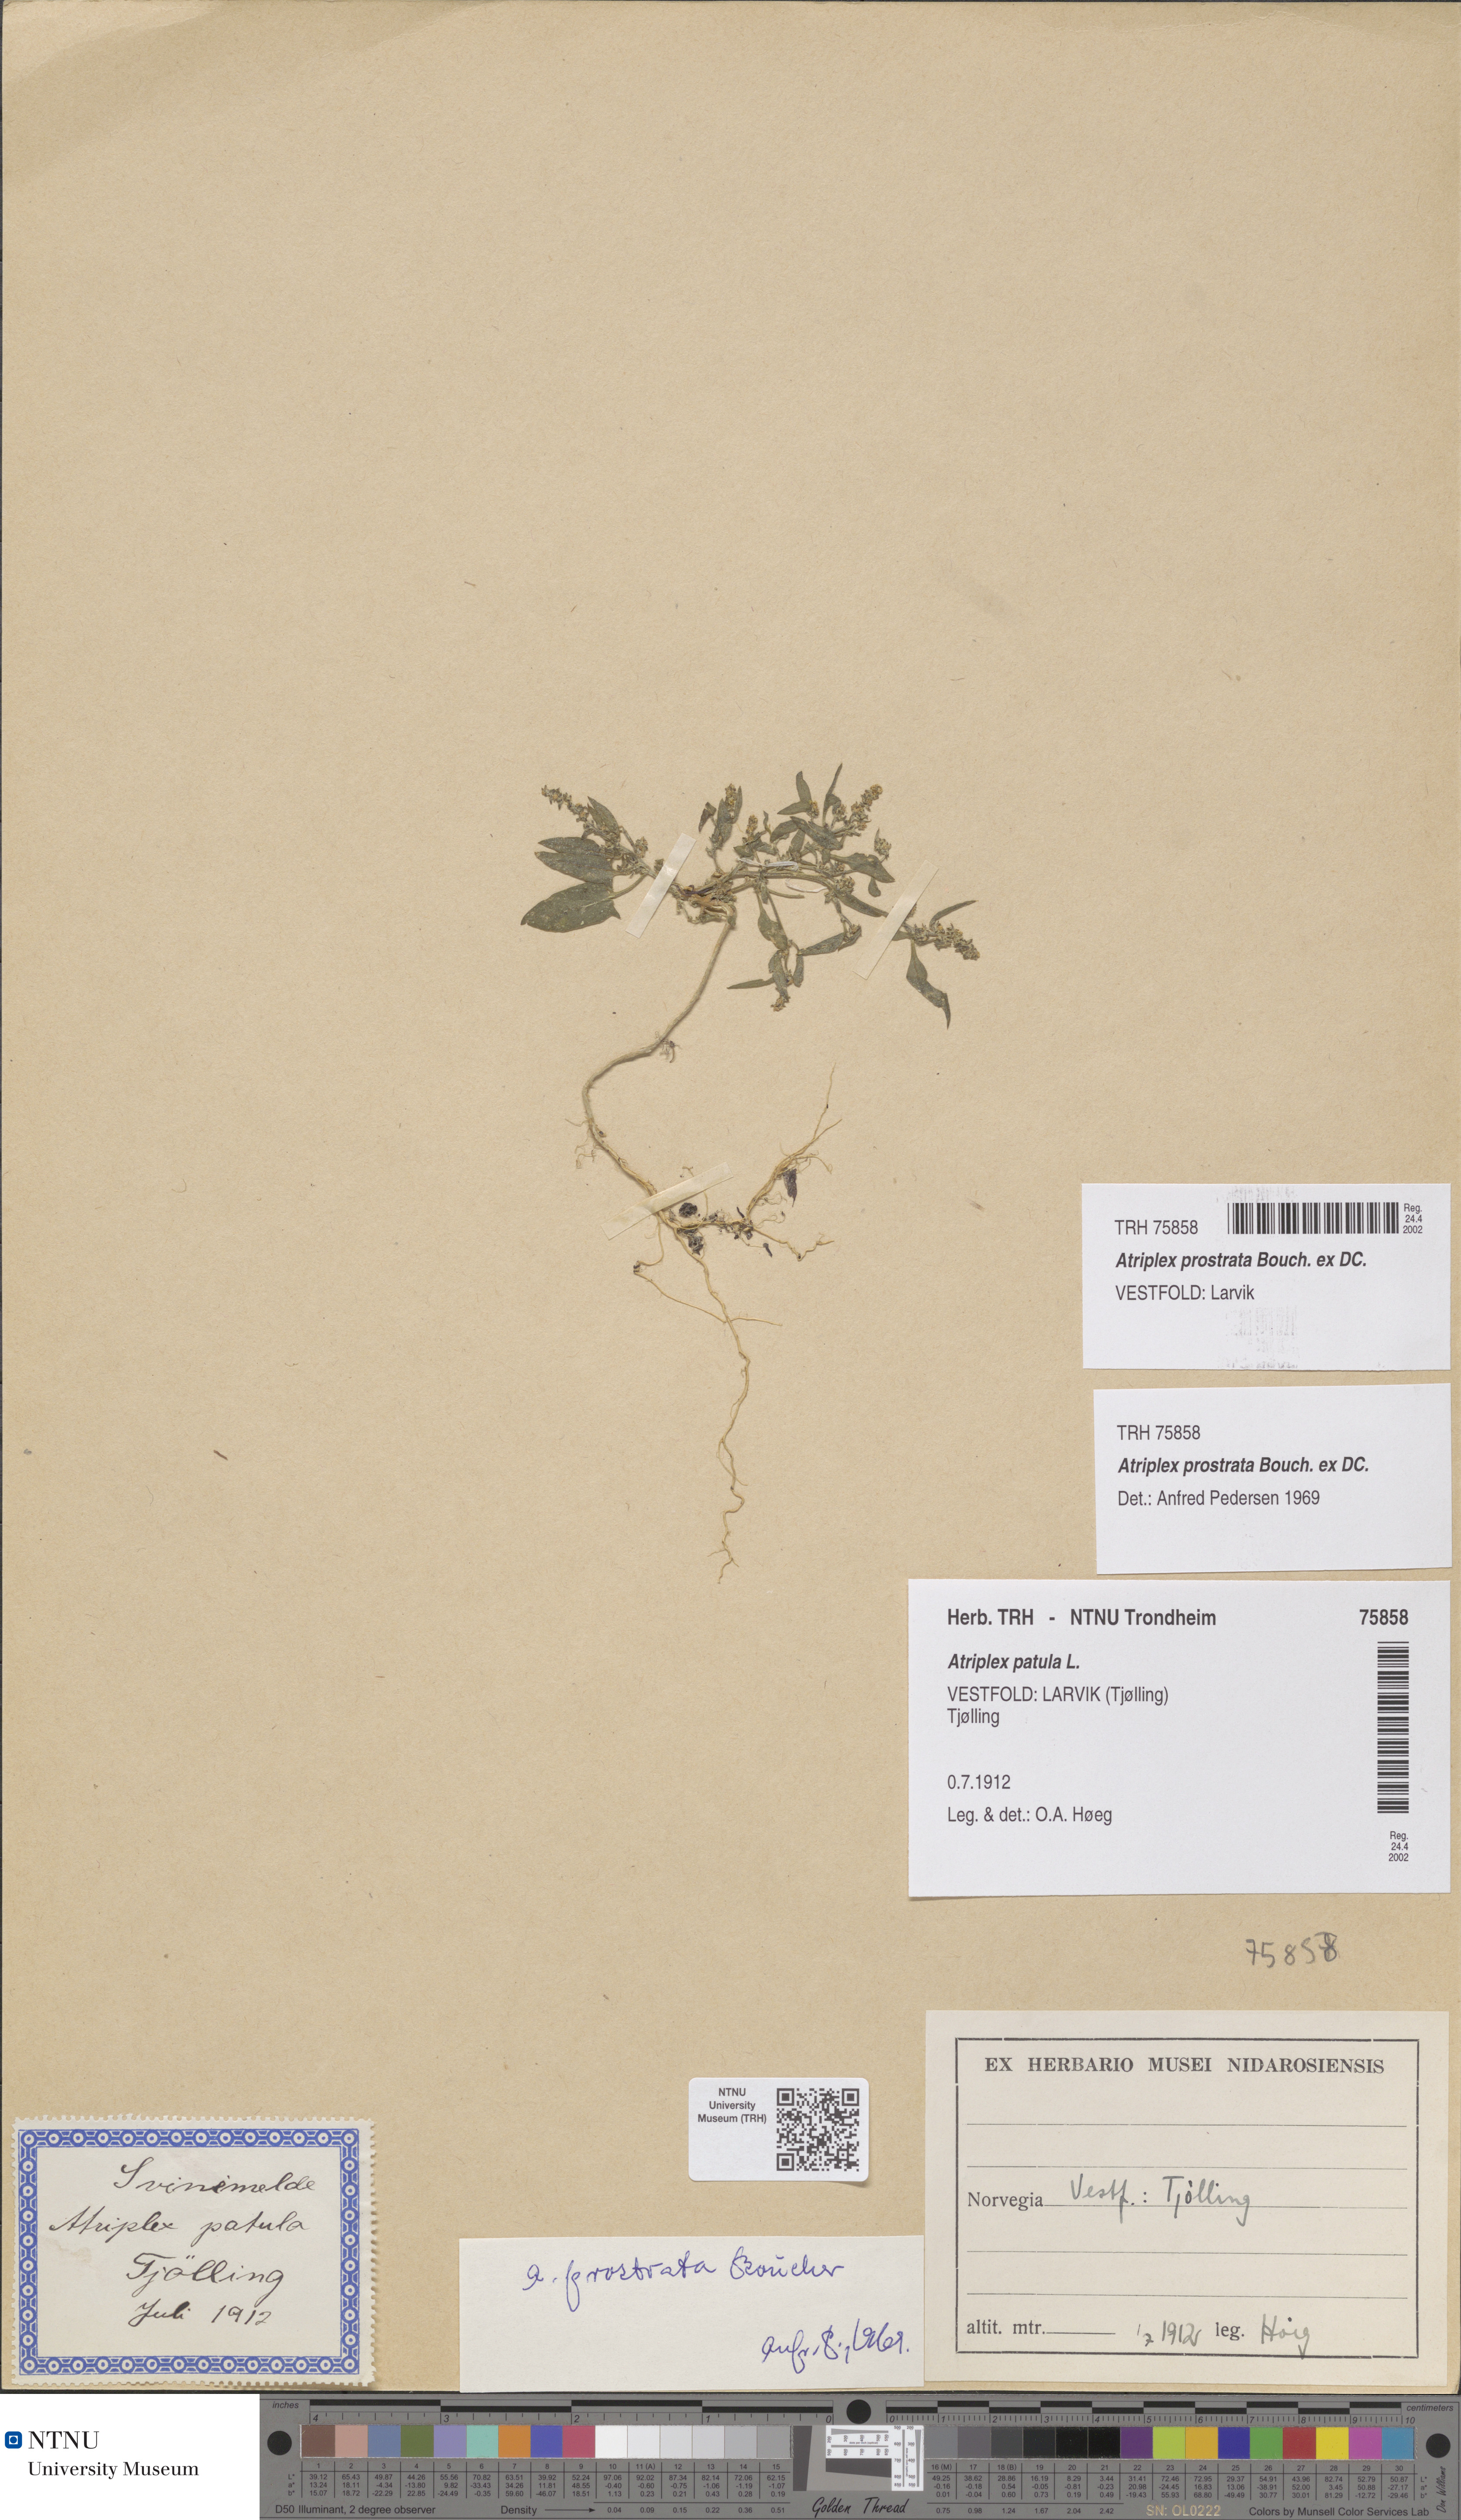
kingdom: Plantae
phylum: Tracheophyta
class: Magnoliopsida
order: Caryophyllales
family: Amaranthaceae
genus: Atriplex
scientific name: Atriplex prostrata
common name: Spear-leaved orache
